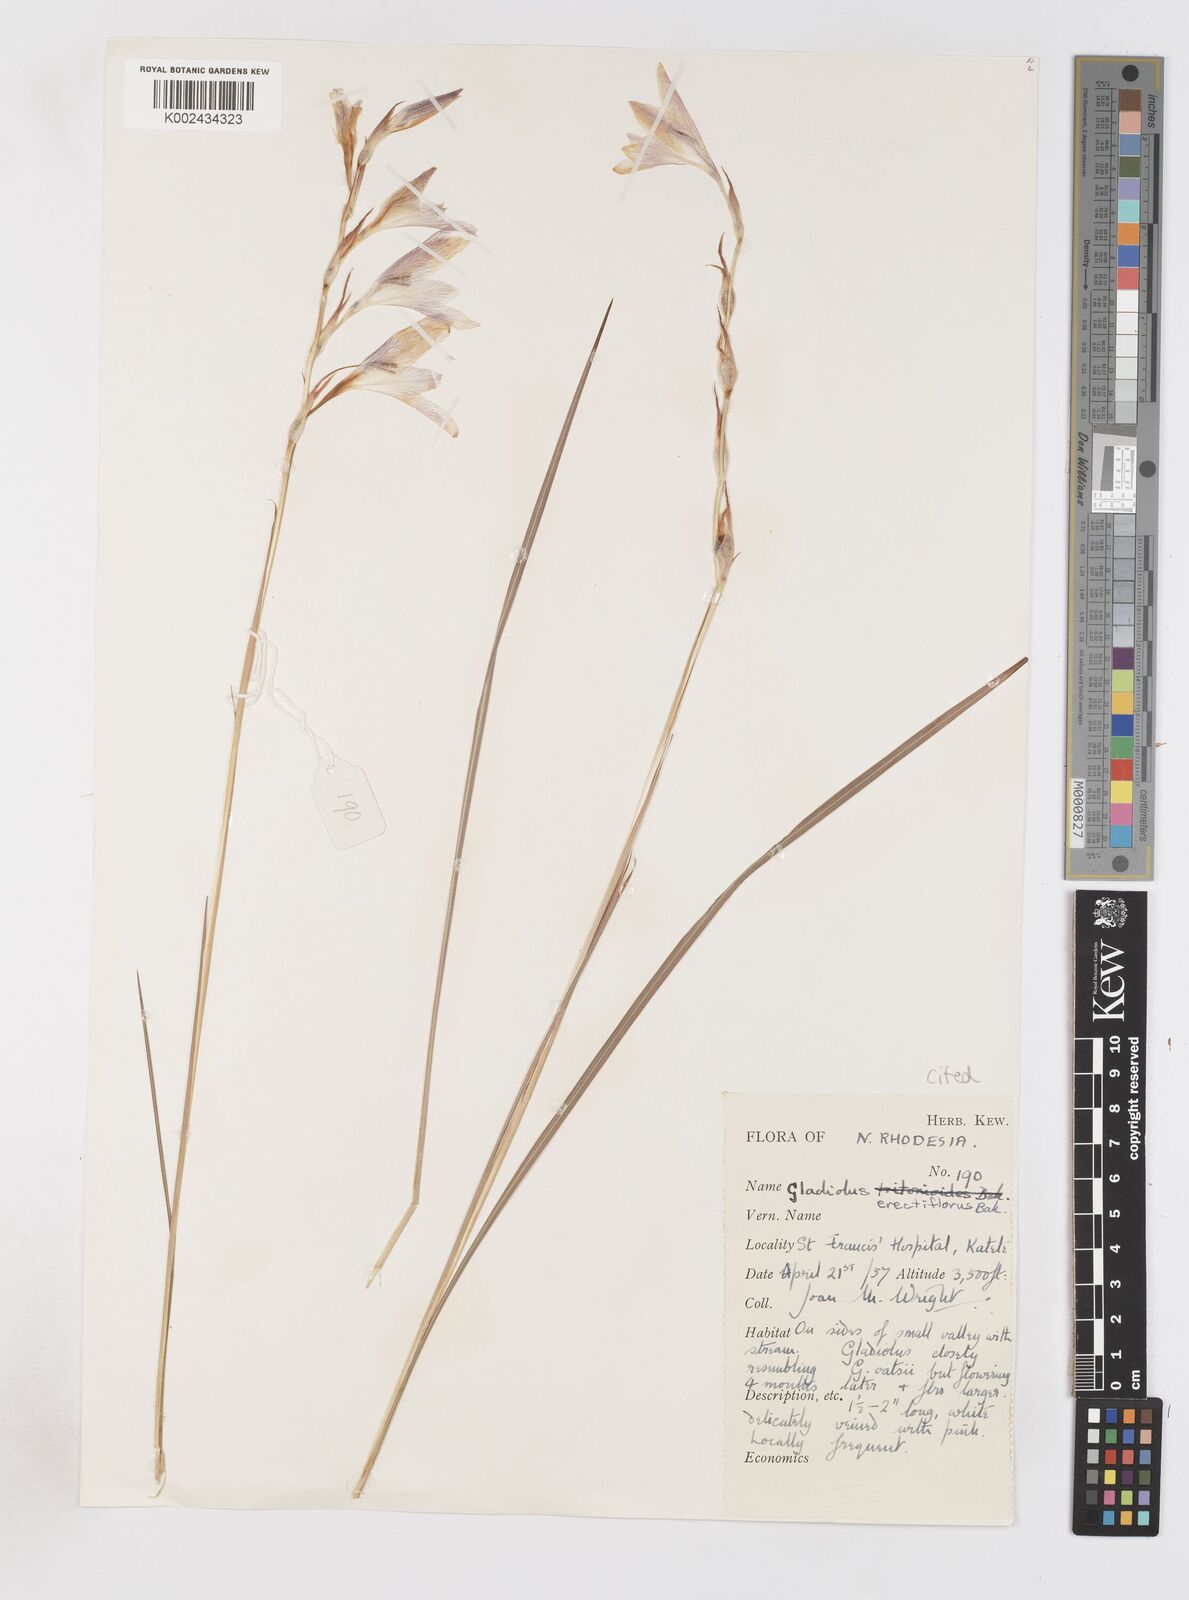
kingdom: Plantae
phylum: Tracheophyta
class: Liliopsida
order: Asparagales
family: Iridaceae
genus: Gladiolus
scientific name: Gladiolus erectiflorus
